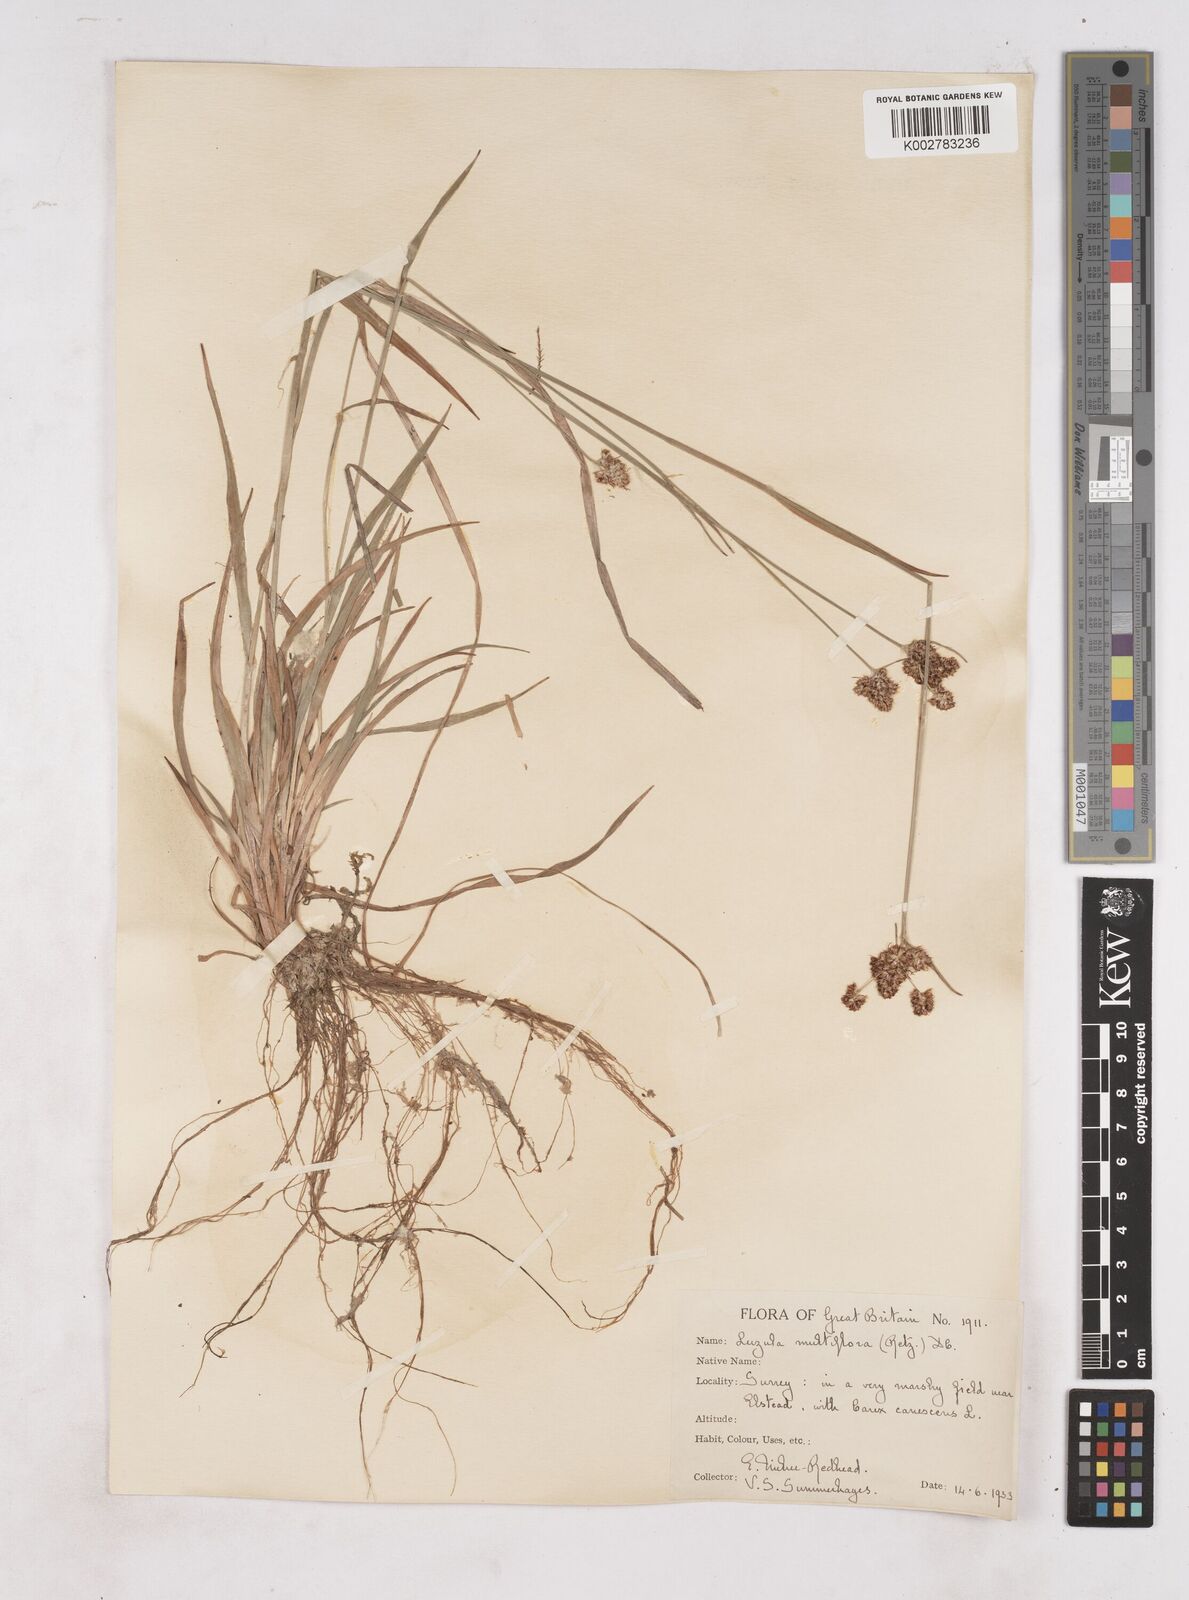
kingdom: Plantae
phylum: Tracheophyta
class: Liliopsida
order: Poales
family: Juncaceae
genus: Luzula
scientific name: Luzula multiflora
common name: Heath wood-rush
